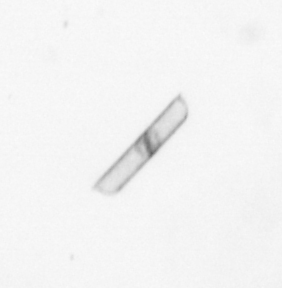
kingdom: Chromista
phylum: Ochrophyta
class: Bacillariophyceae
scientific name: Bacillariophyceae
